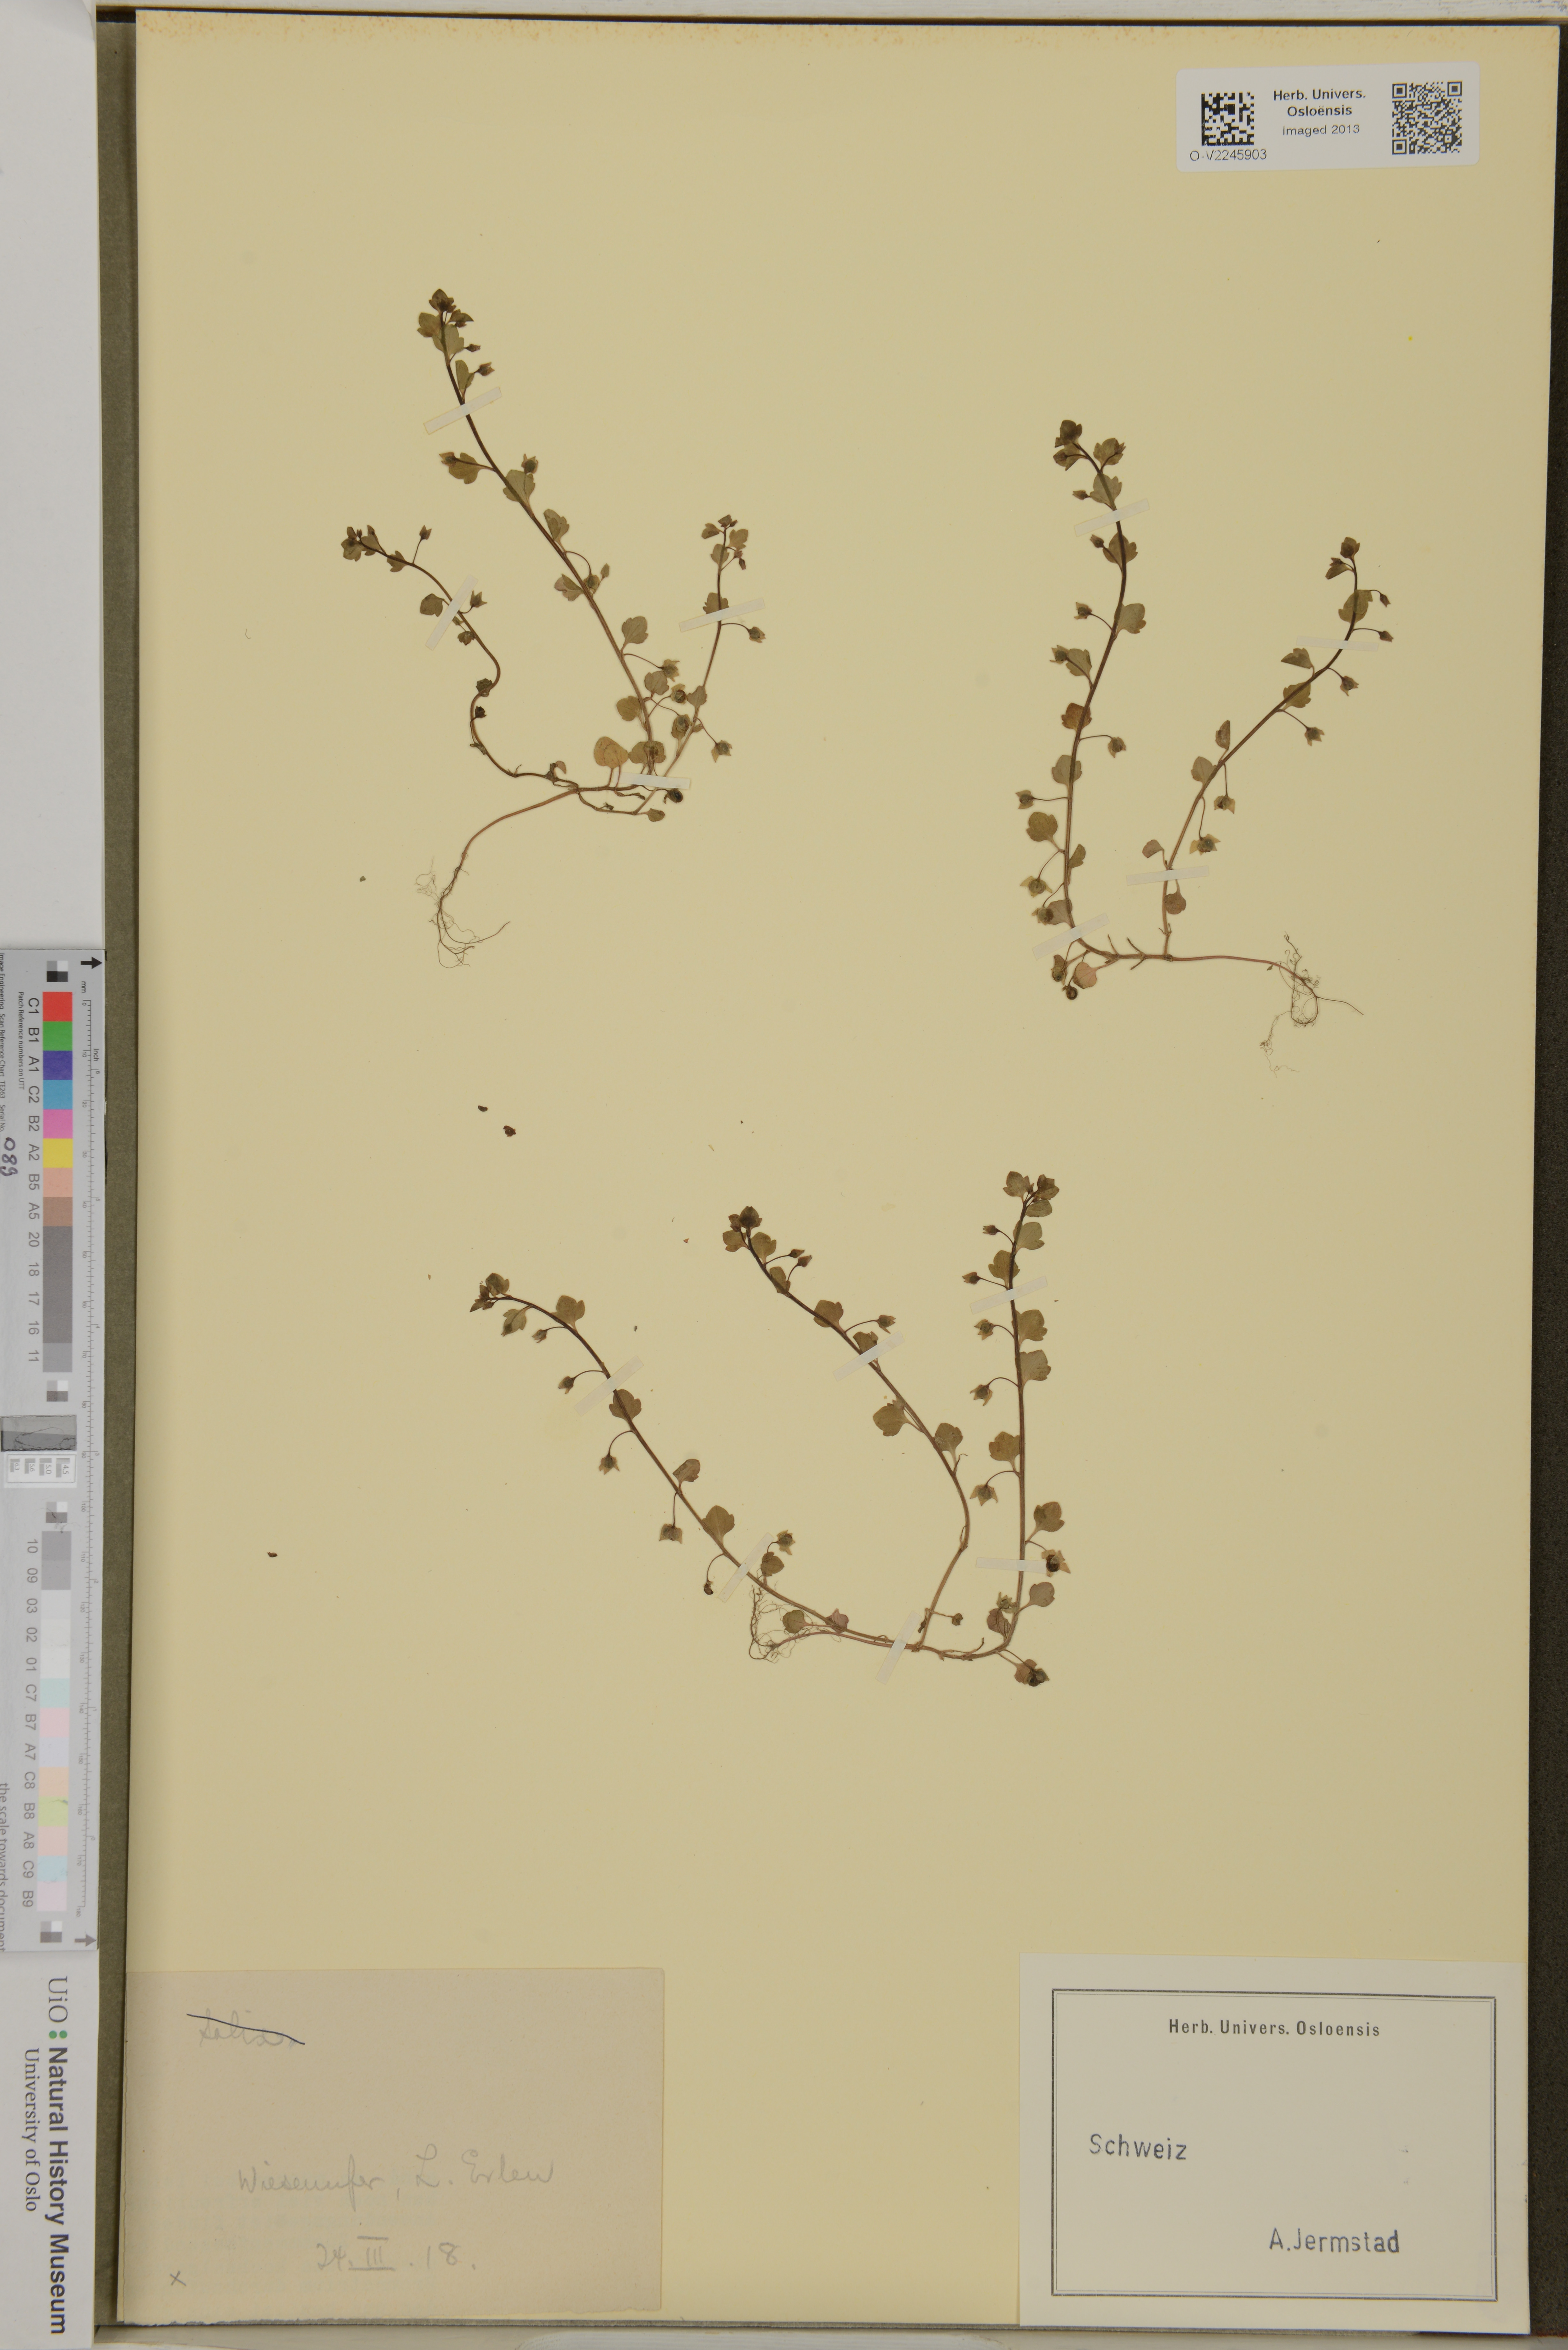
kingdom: Plantae
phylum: Tracheophyta
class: Magnoliopsida
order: Lamiales
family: Plantaginaceae
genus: Veronica
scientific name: Veronica
